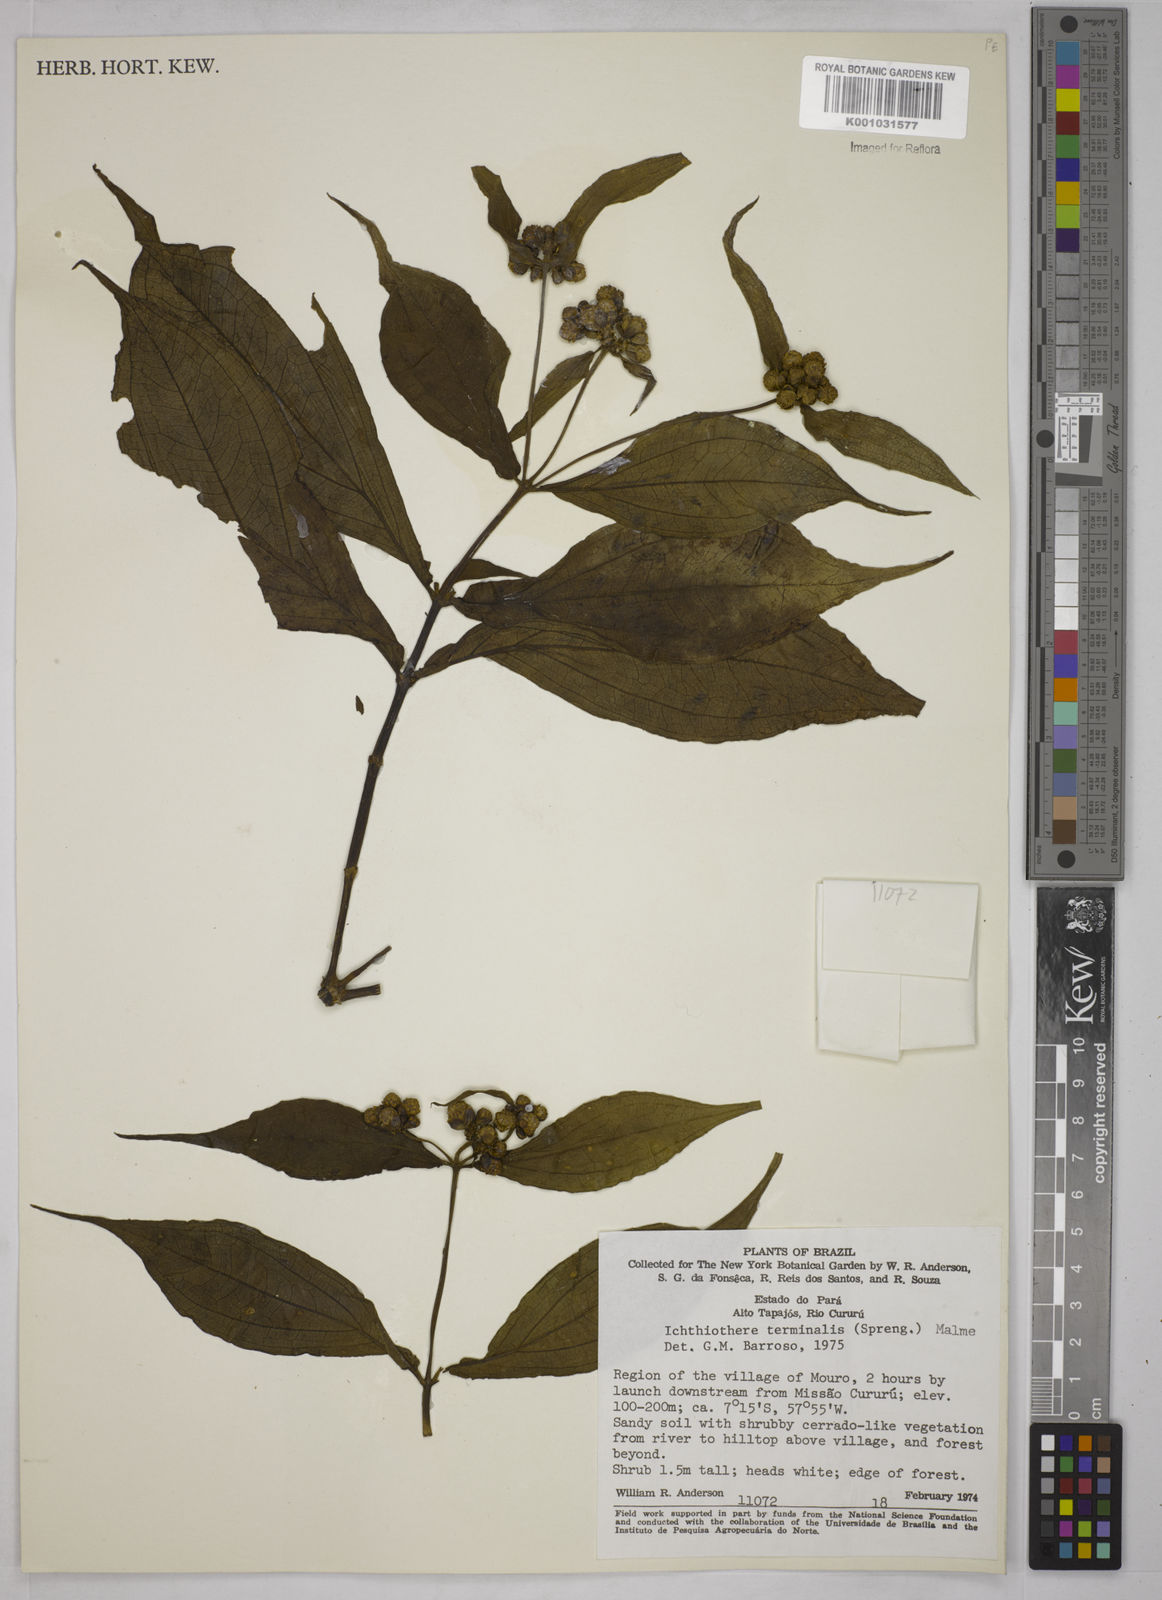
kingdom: Plantae
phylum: Tracheophyta
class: Magnoliopsida
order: Asterales
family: Asteraceae
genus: Ichthyothere
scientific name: Ichthyothere cunabi
